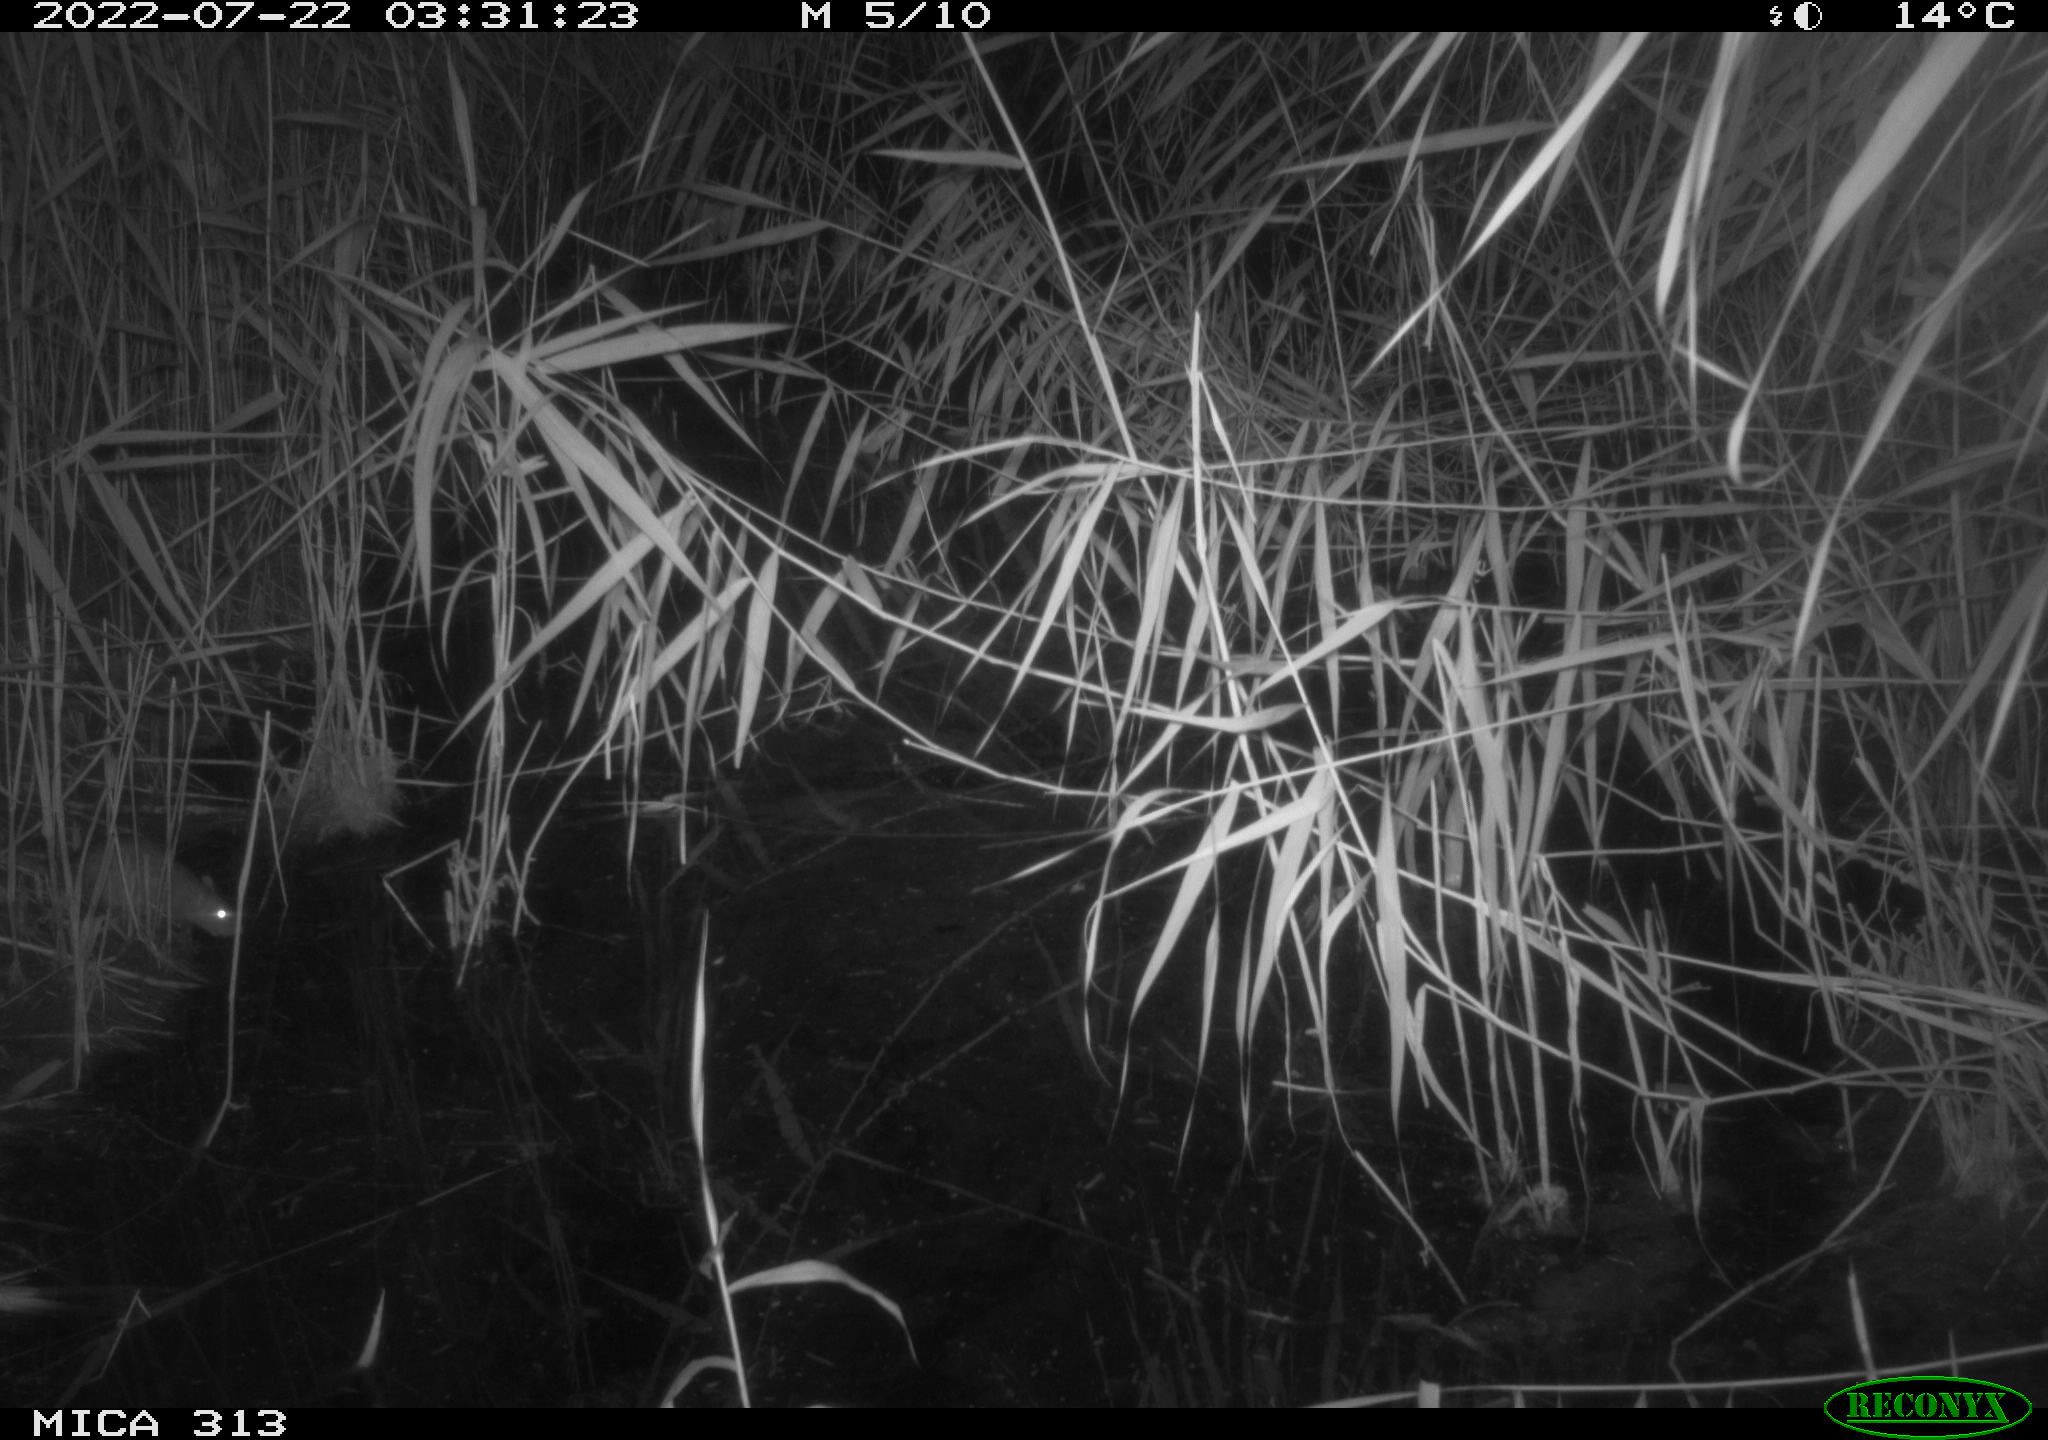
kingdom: Animalia
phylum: Chordata
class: Mammalia
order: Rodentia
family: Muridae
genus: Rattus
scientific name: Rattus norvegicus
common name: Brown rat
